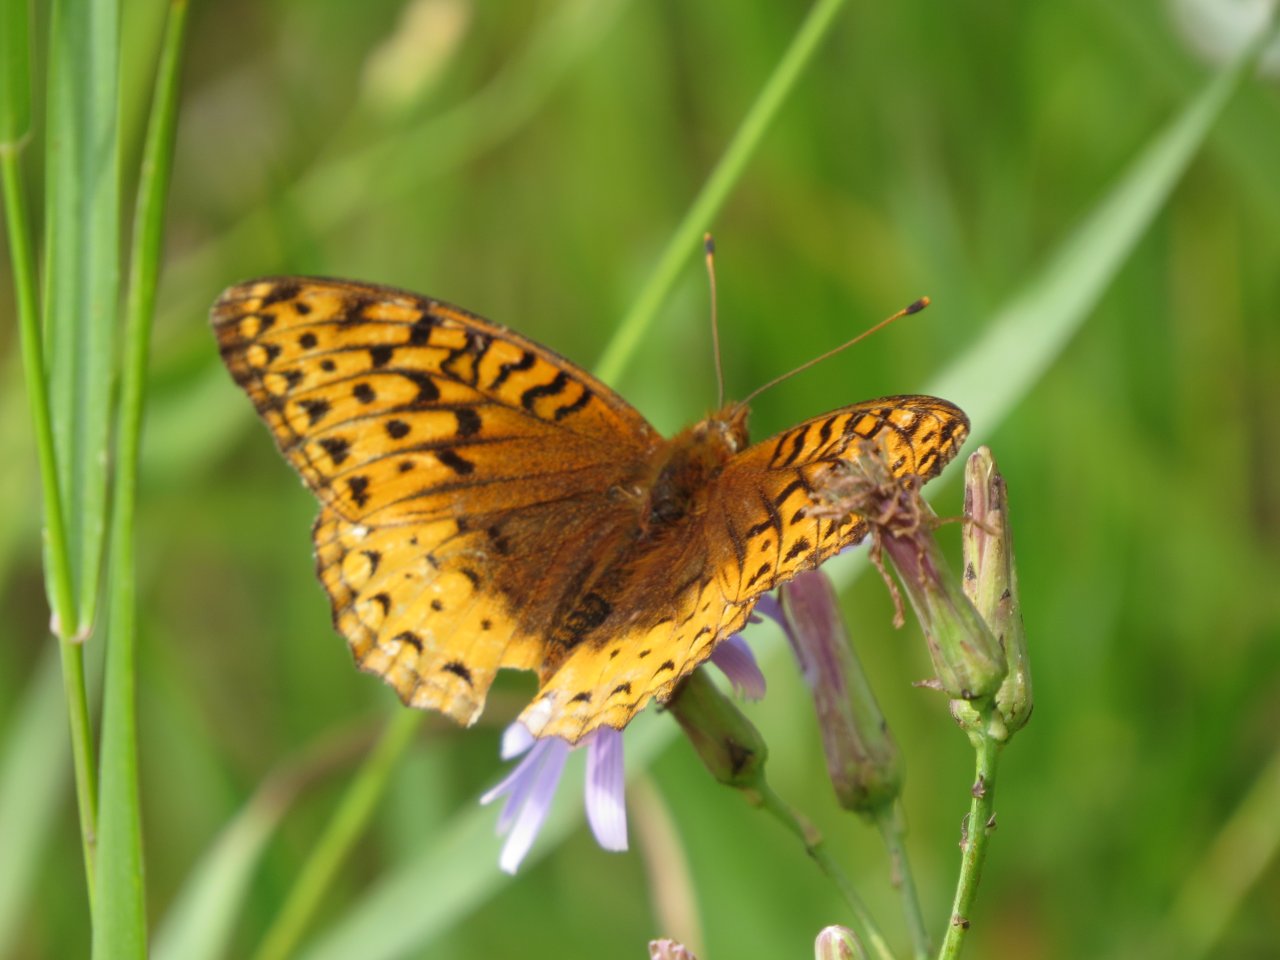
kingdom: Animalia
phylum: Arthropoda
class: Insecta
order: Lepidoptera
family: Nymphalidae
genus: Speyeria
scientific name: Speyeria cybele
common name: Great Spangled Fritillary
